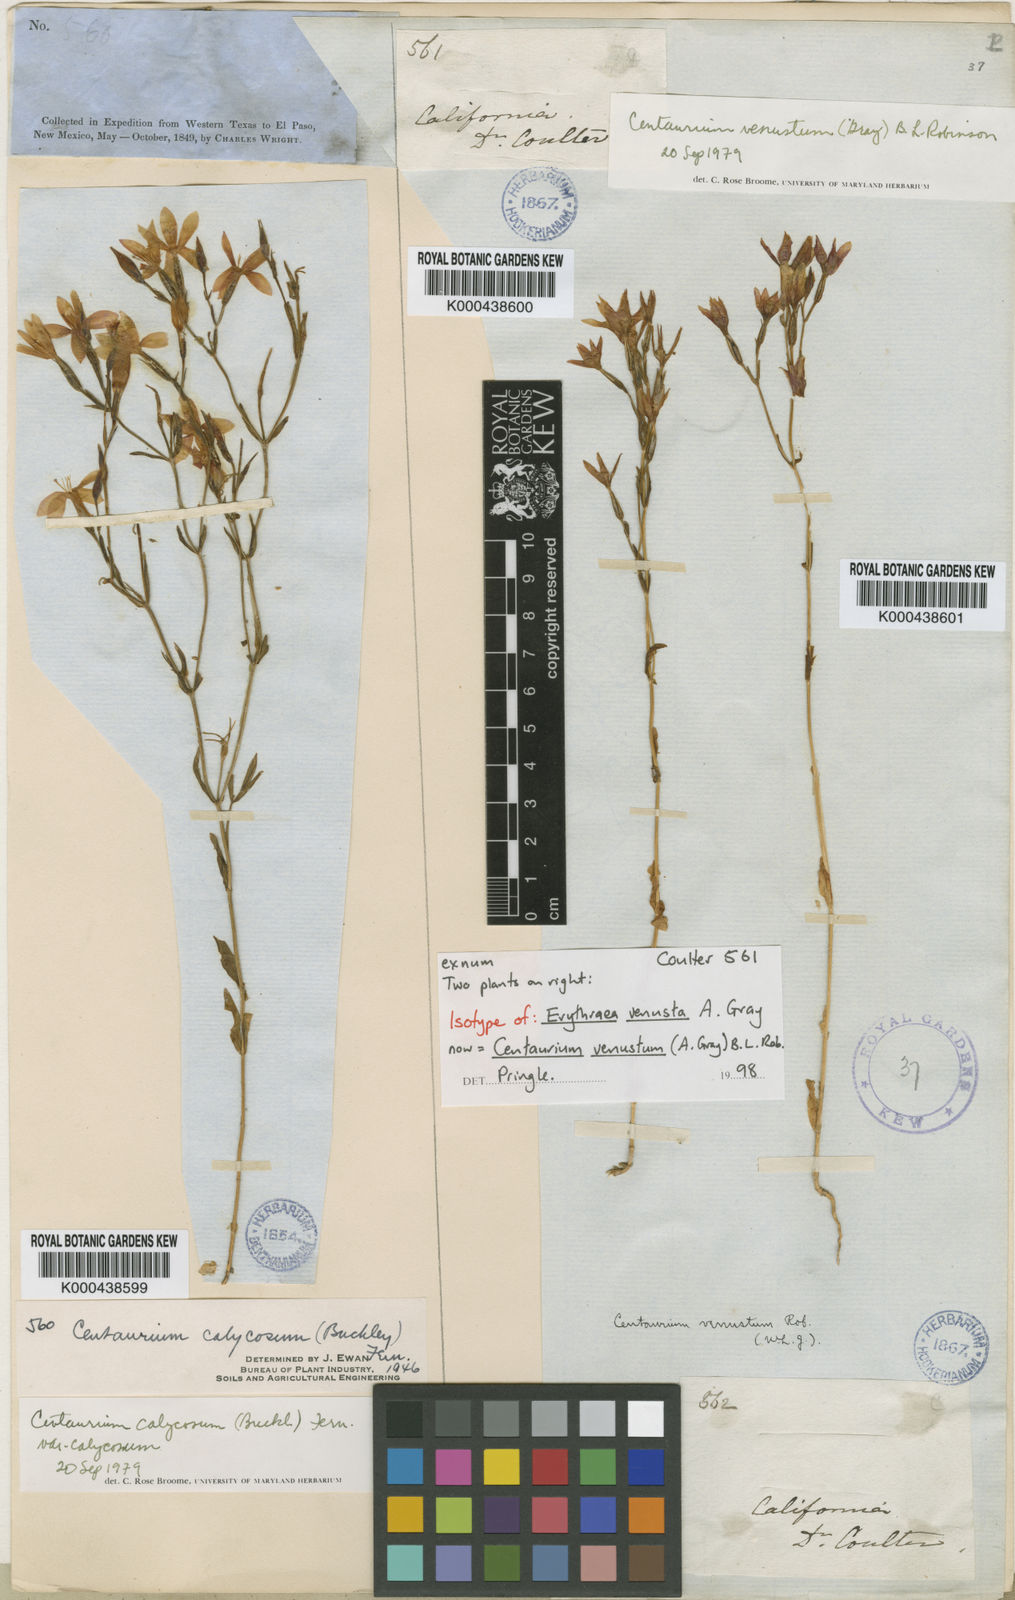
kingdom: Plantae
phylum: Tracheophyta
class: Magnoliopsida
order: Gentianales
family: Gentianaceae
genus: Zeltnera
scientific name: Zeltnera venusta
